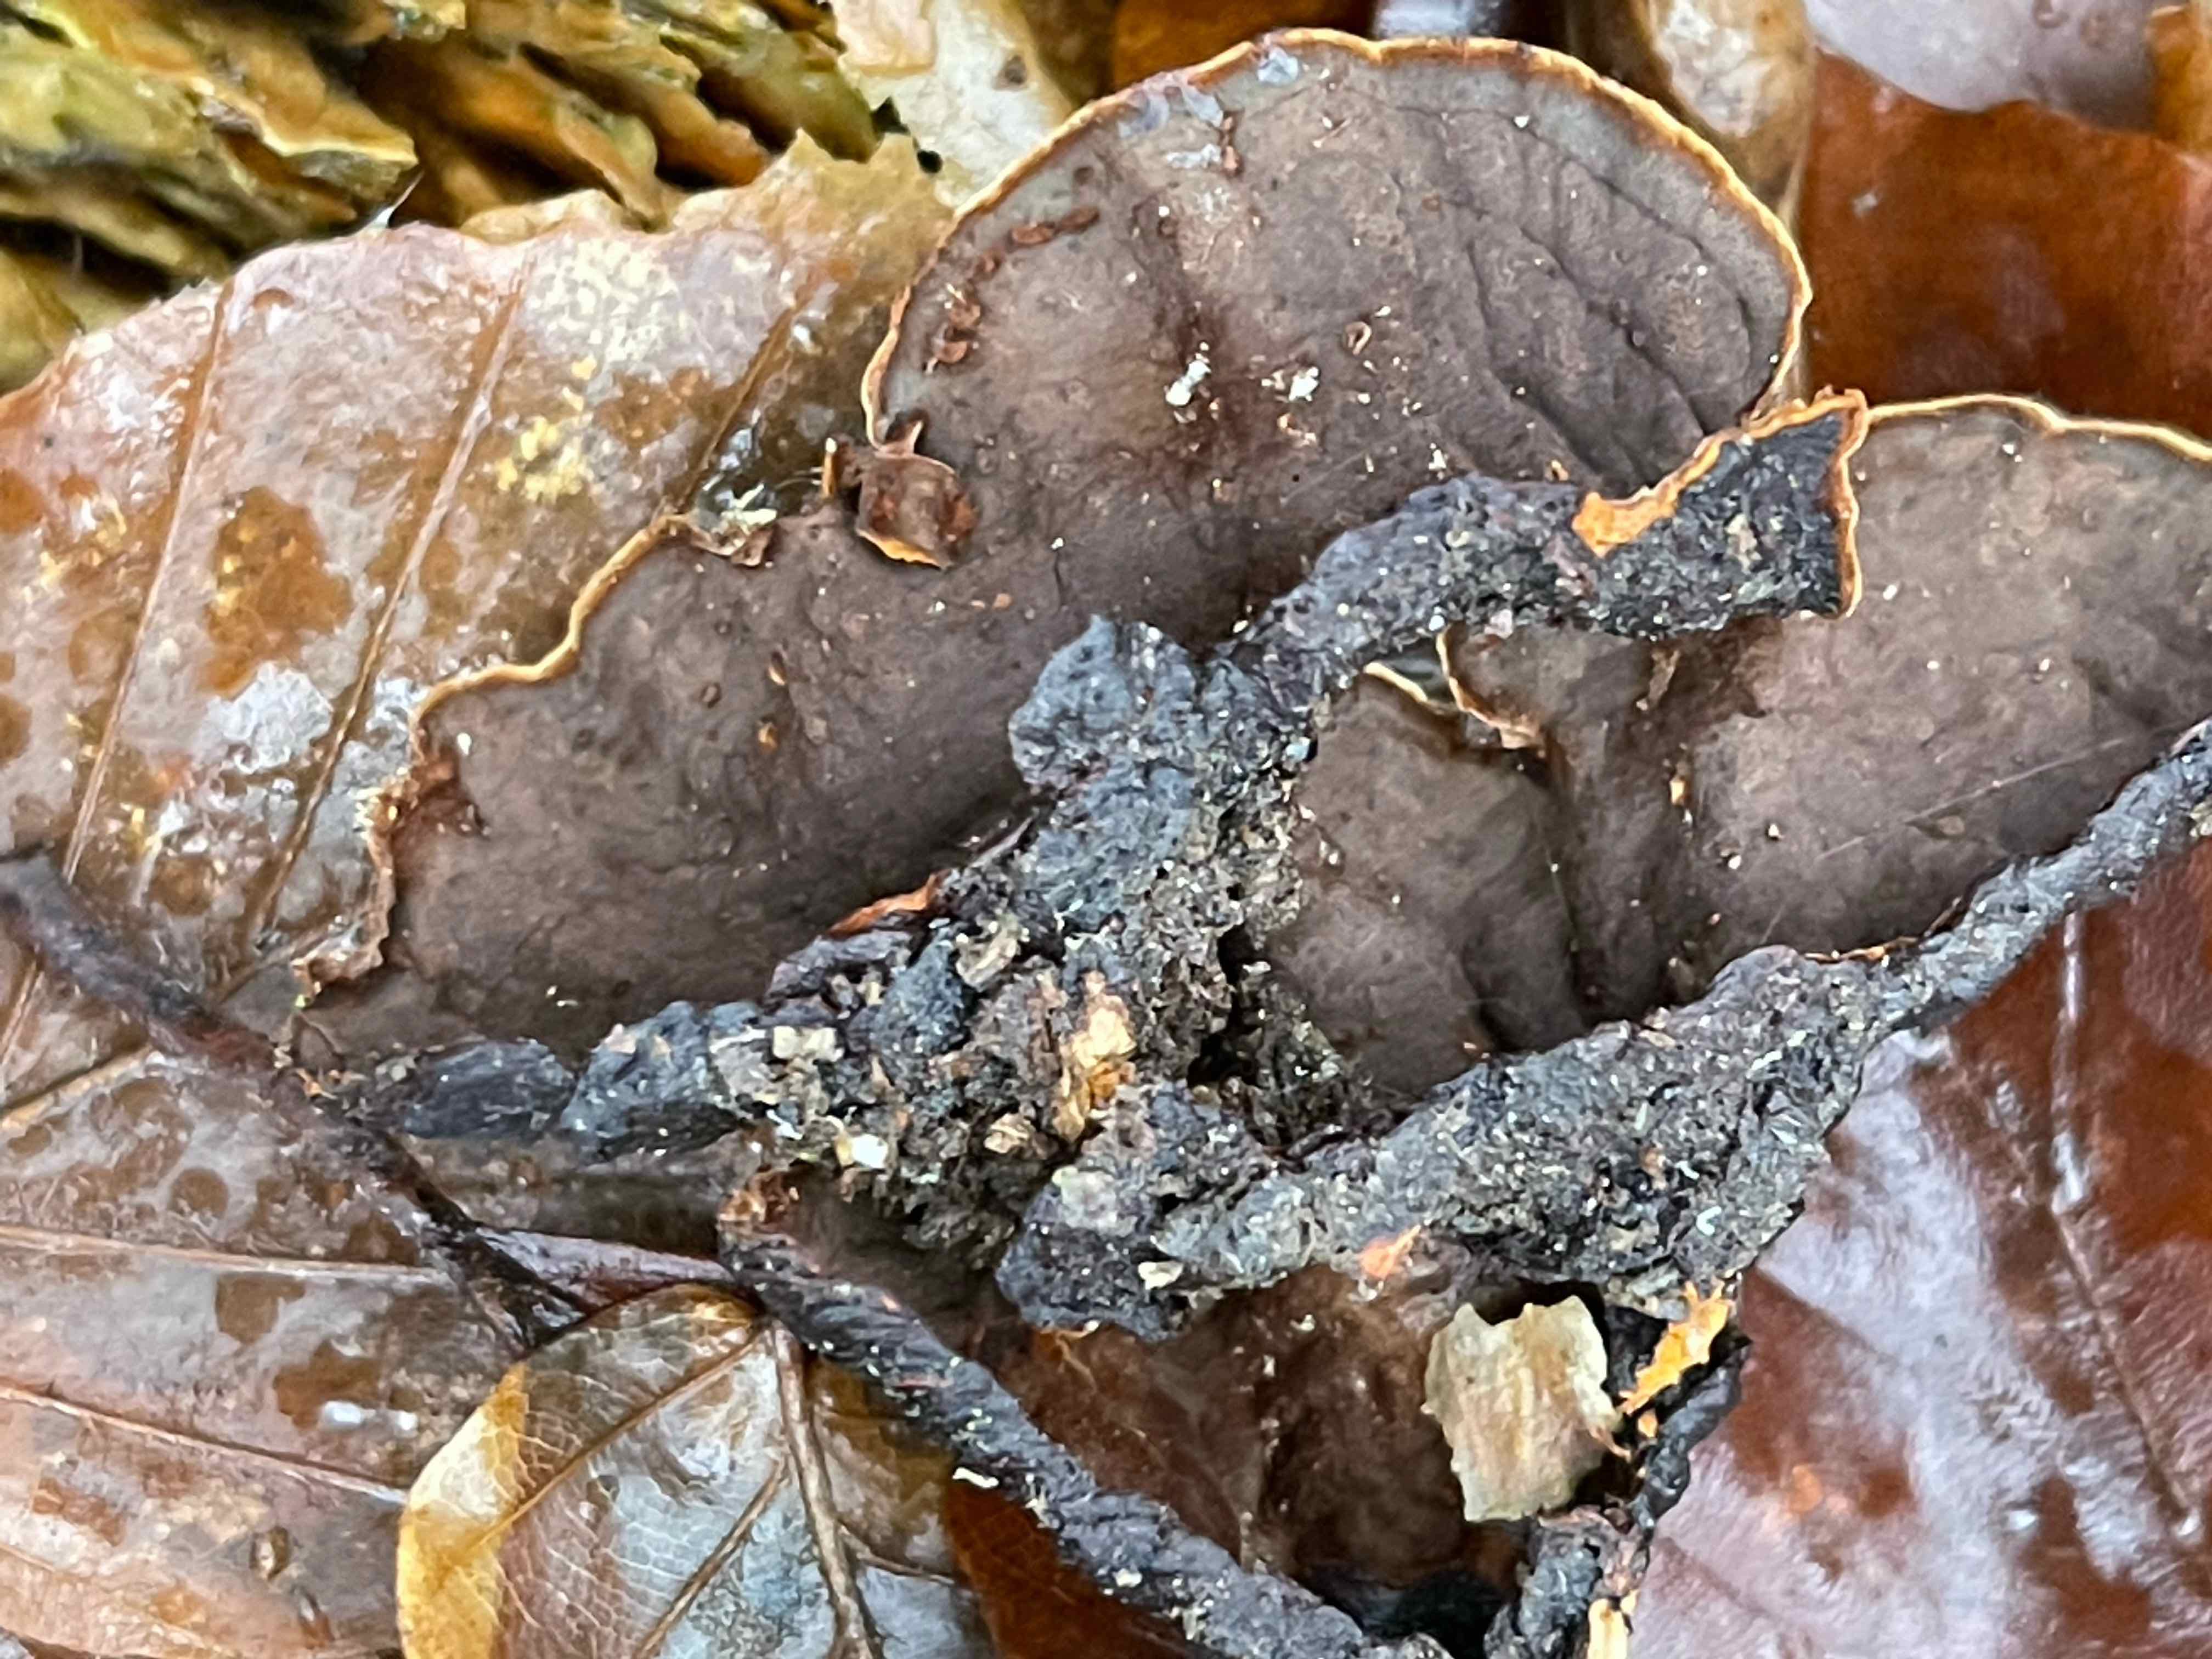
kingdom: Fungi
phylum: Basidiomycota
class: Agaricomycetes
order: Hymenochaetales
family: Hymenochaetaceae
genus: Hymenochaete
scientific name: Hymenochaete rubiginosa
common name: stiv ruslædersvamp
